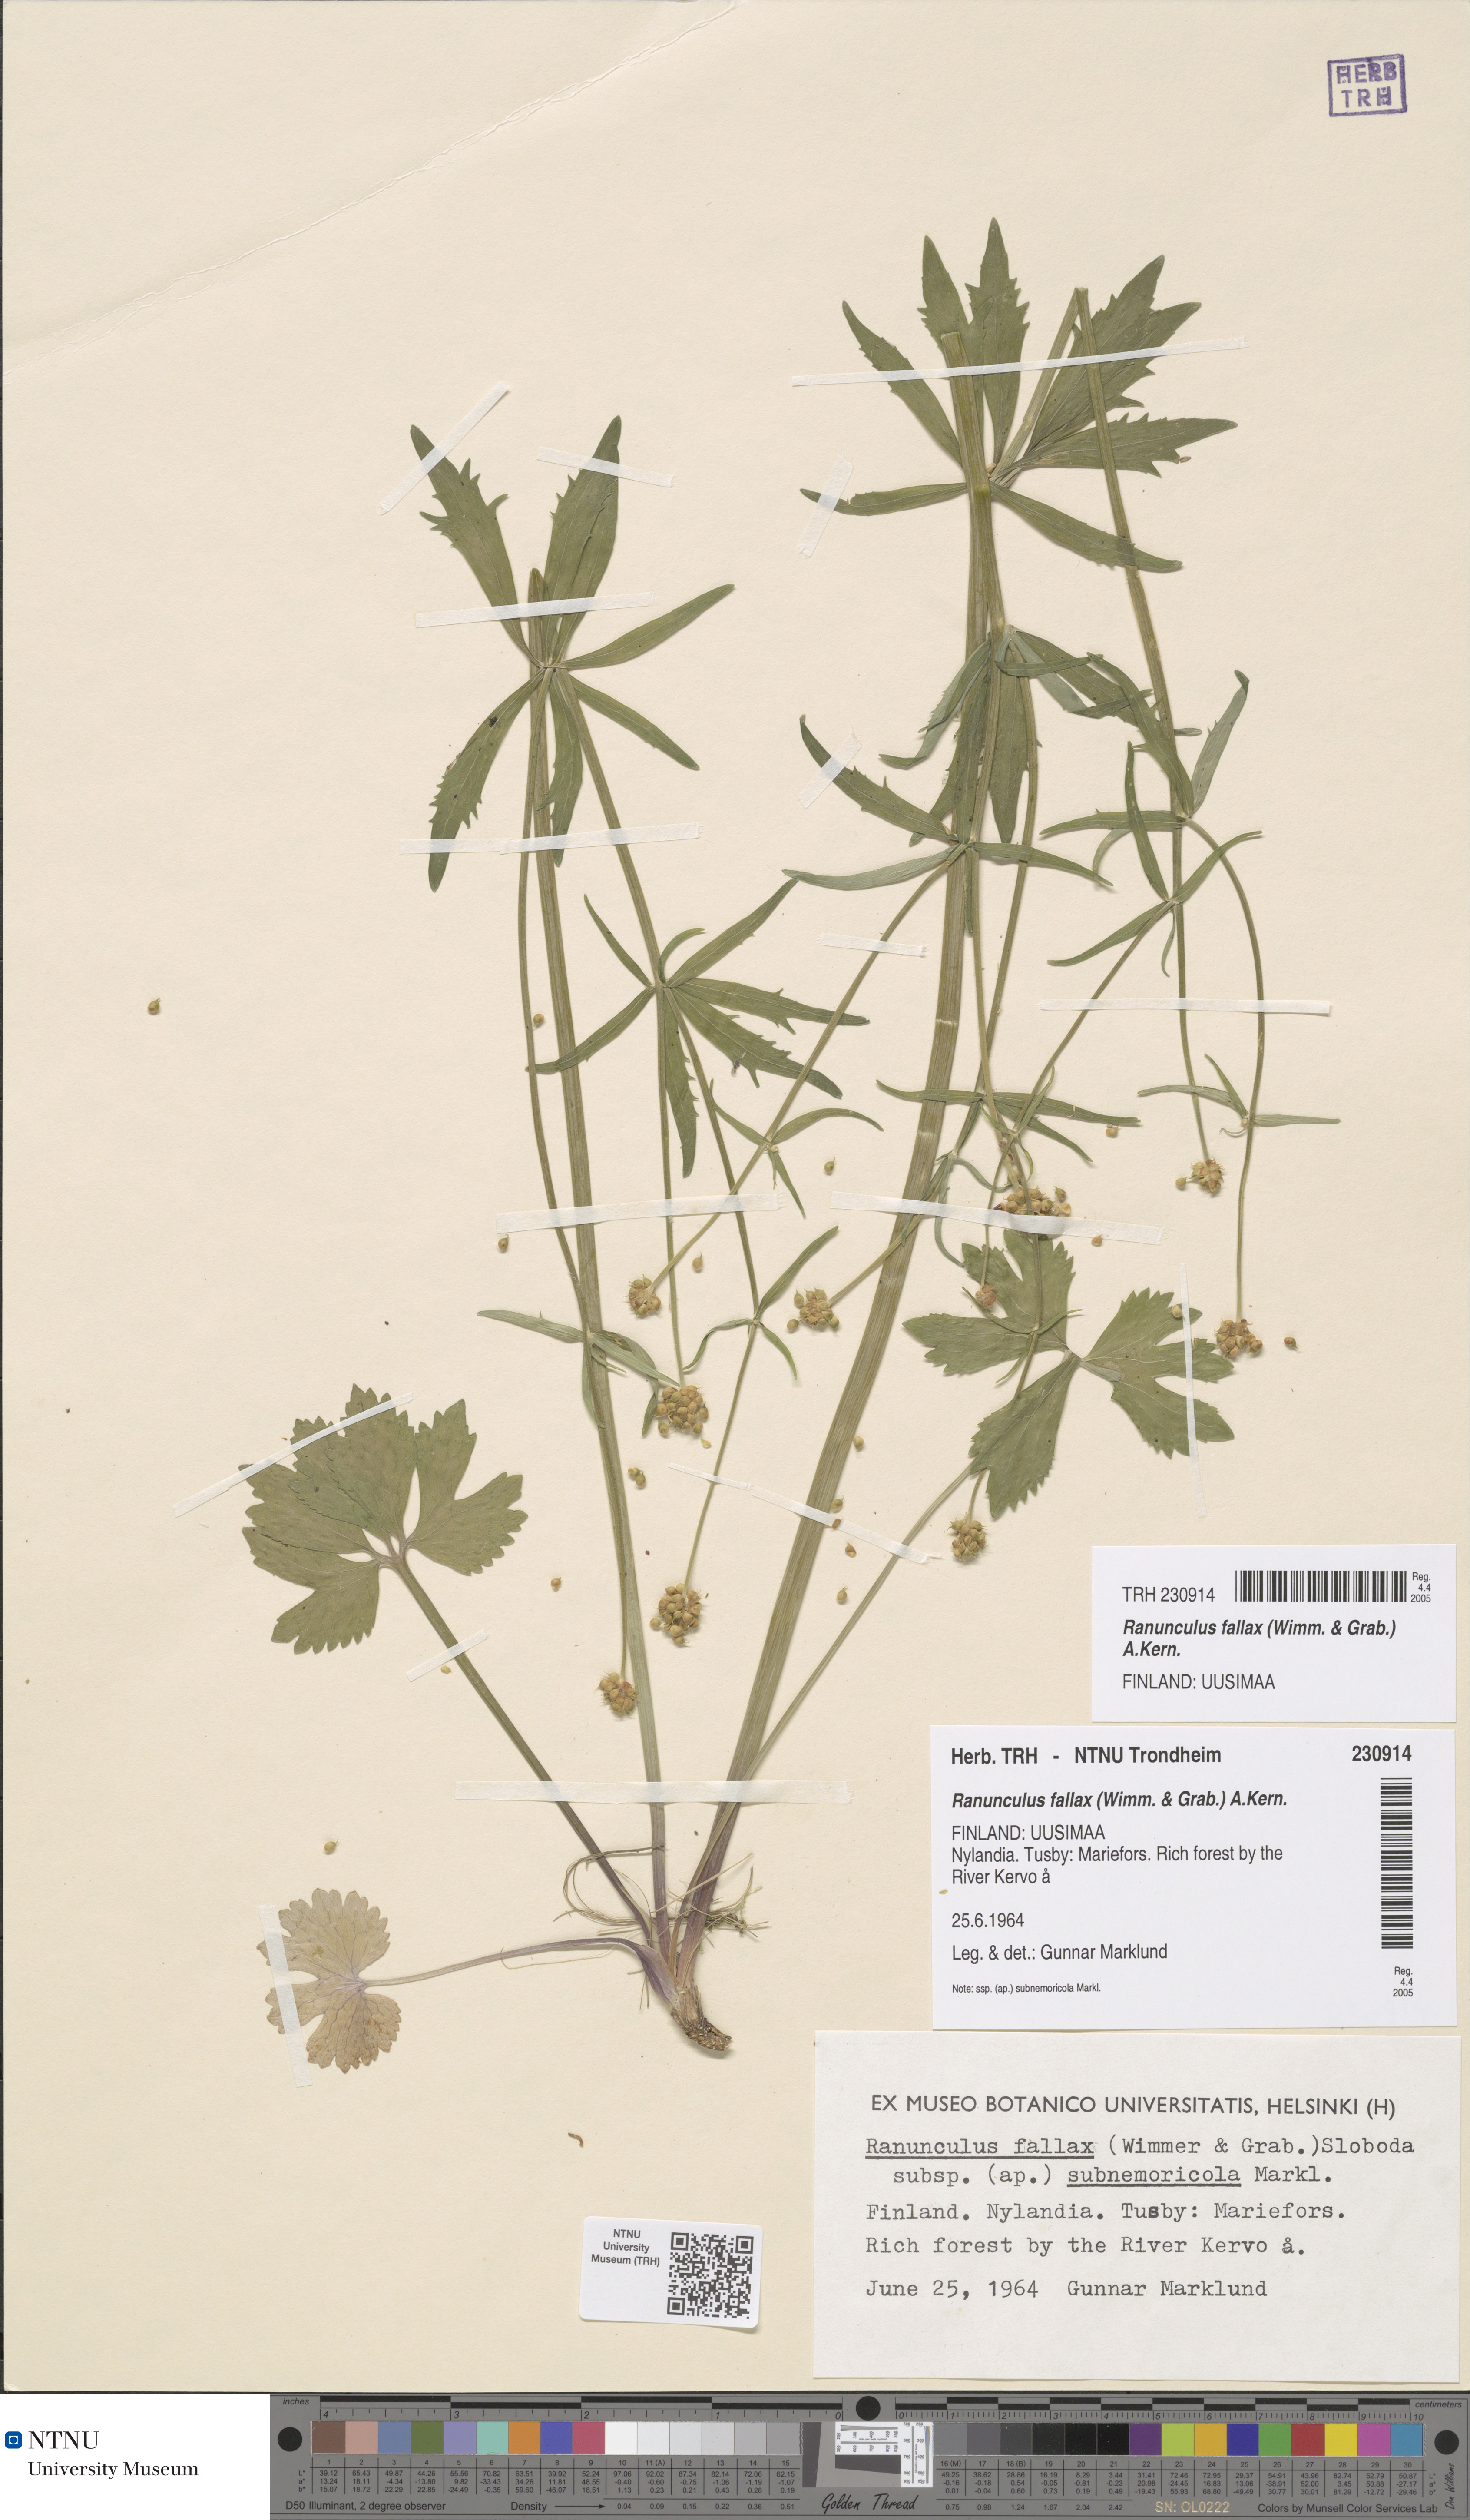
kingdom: Plantae
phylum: Tracheophyta
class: Magnoliopsida
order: Ranunculales
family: Ranunculaceae
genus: Ranunculus
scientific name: Ranunculus fallax
